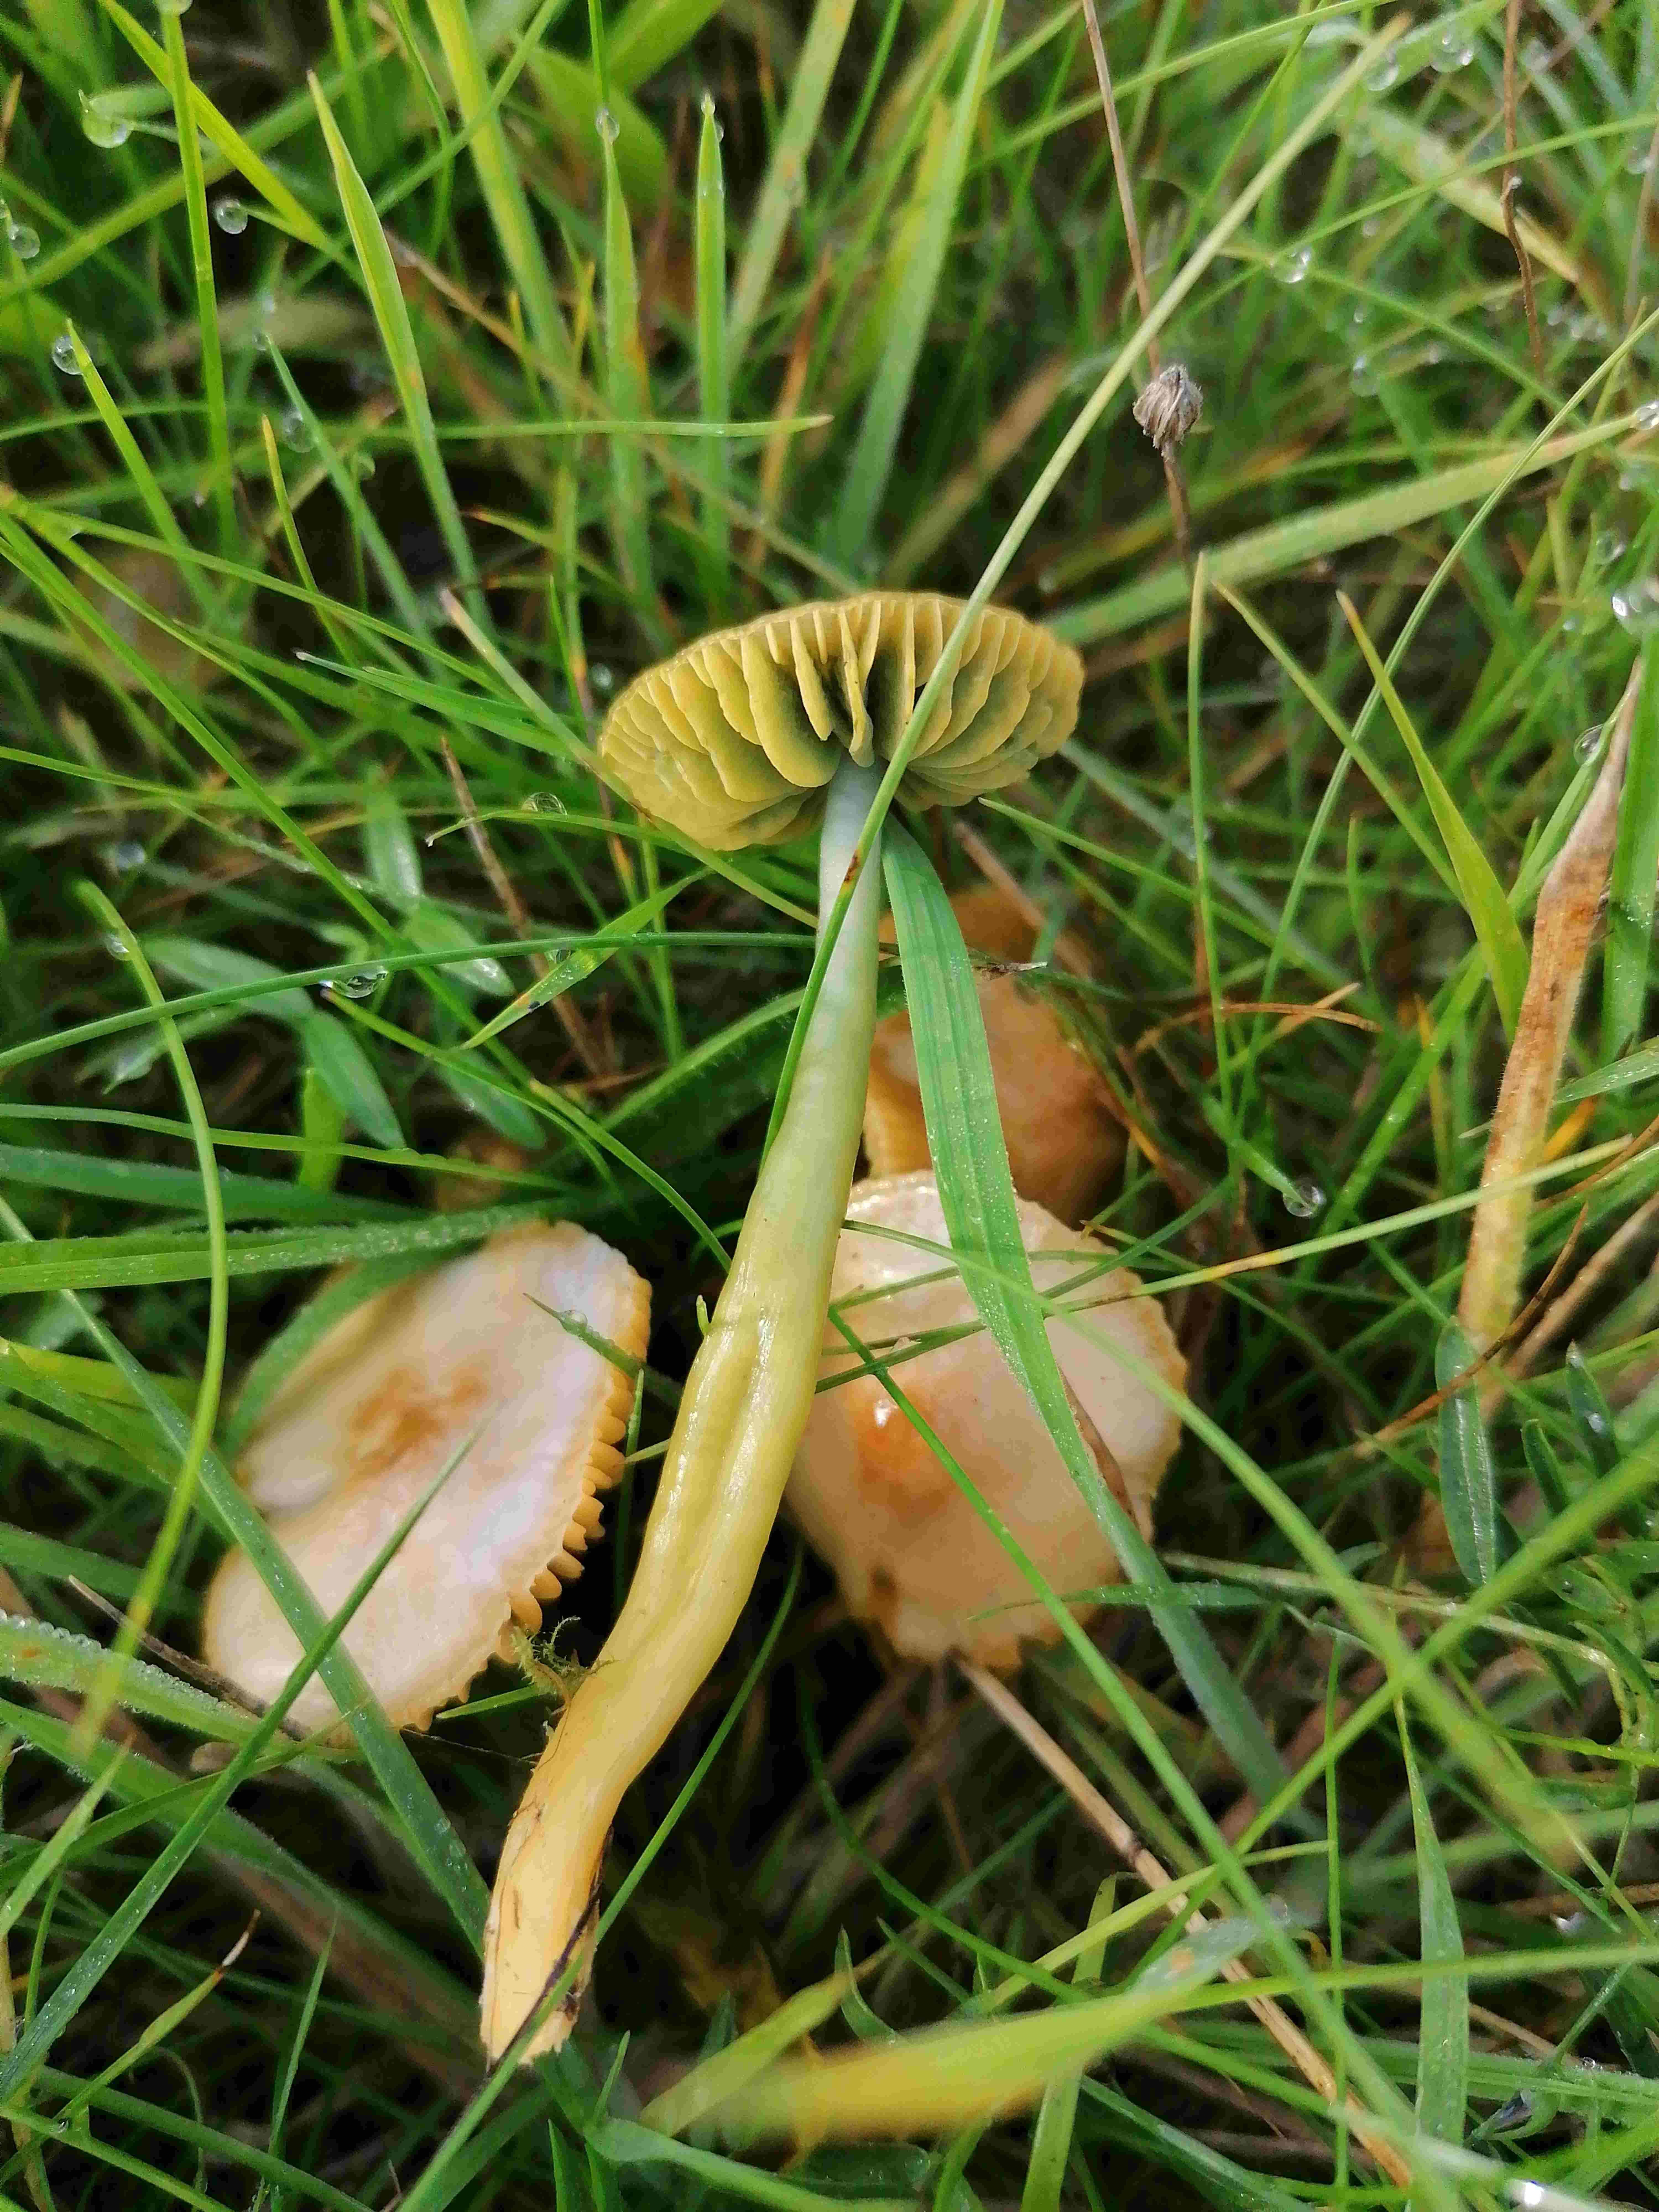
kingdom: Fungi
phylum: Basidiomycota
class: Agaricomycetes
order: Agaricales
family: Hygrophoraceae
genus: Gliophorus
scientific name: Gliophorus psittacinus
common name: papegøje-vokshat
